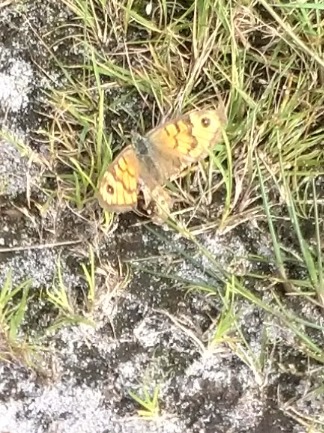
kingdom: Animalia
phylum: Arthropoda
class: Insecta
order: Lepidoptera
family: Nymphalidae
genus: Pararge
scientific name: Pararge Lasiommata megera
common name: Vejrandøje
